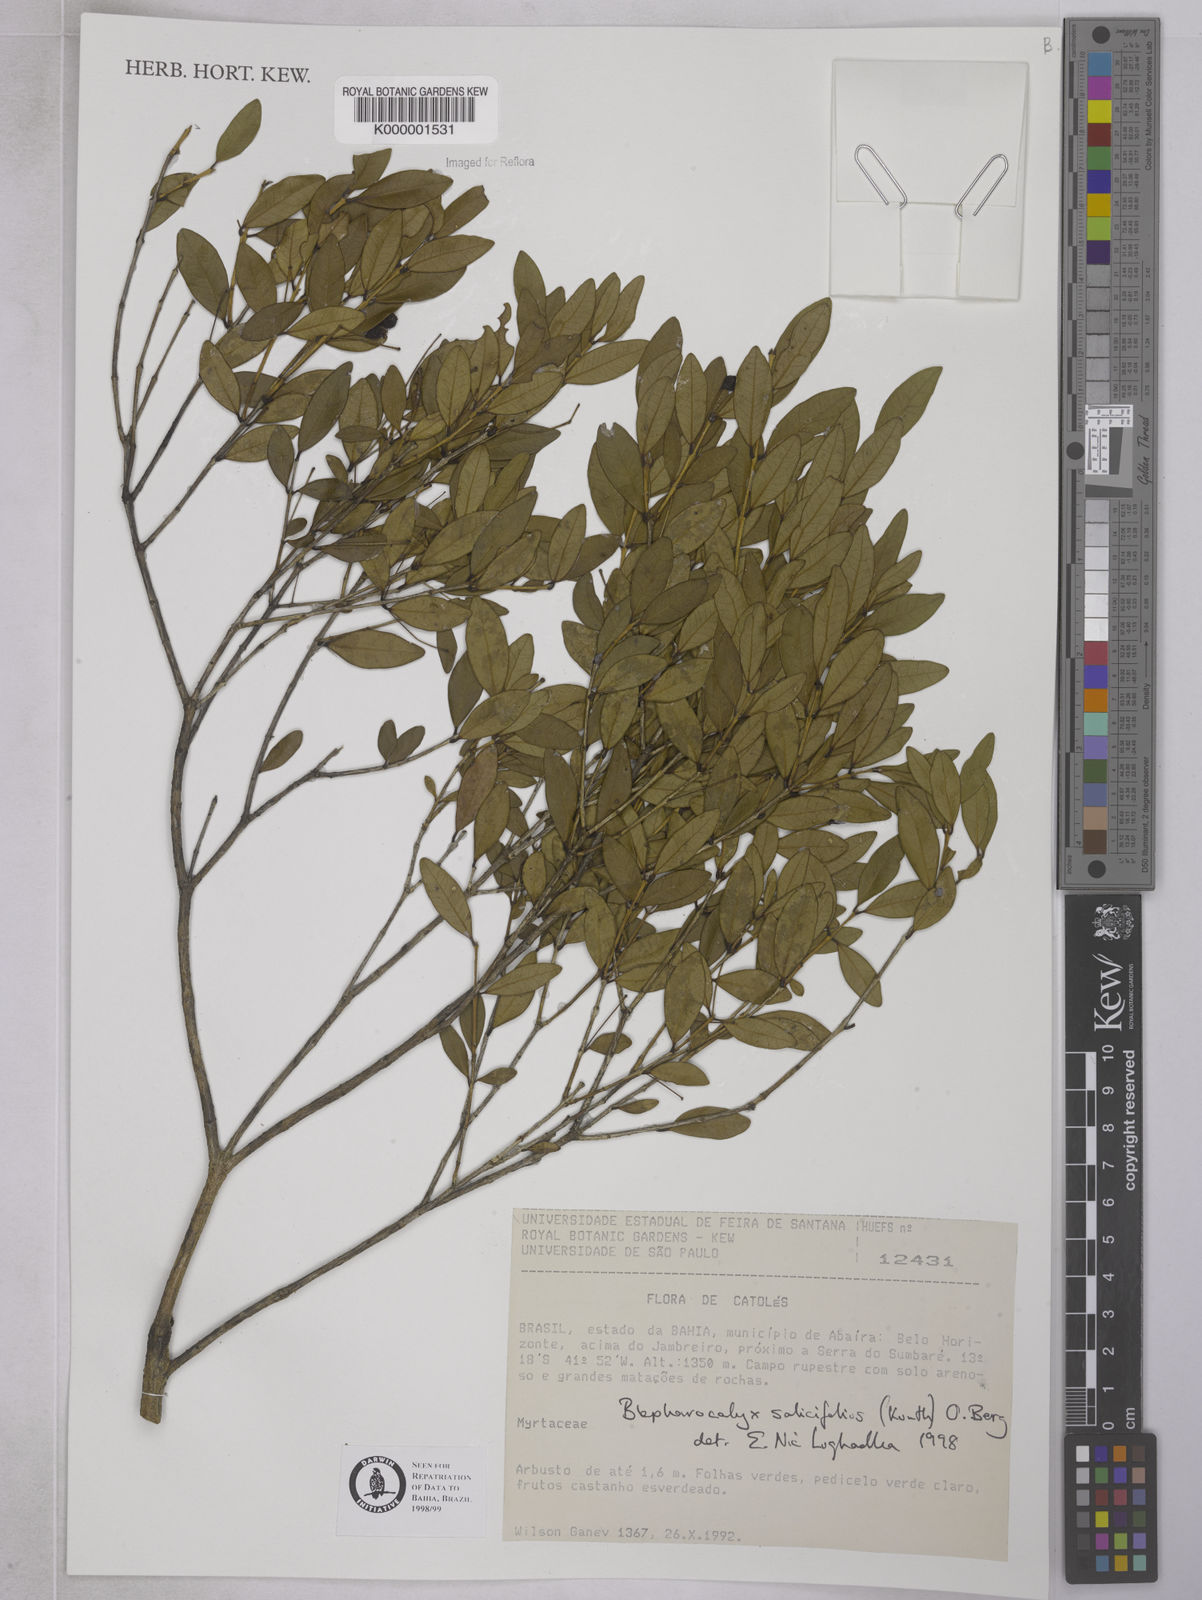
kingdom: Plantae
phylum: Tracheophyta
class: Magnoliopsida
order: Myrtales
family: Myrtaceae
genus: Blepharocalyx
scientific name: Blepharocalyx salicifolius
